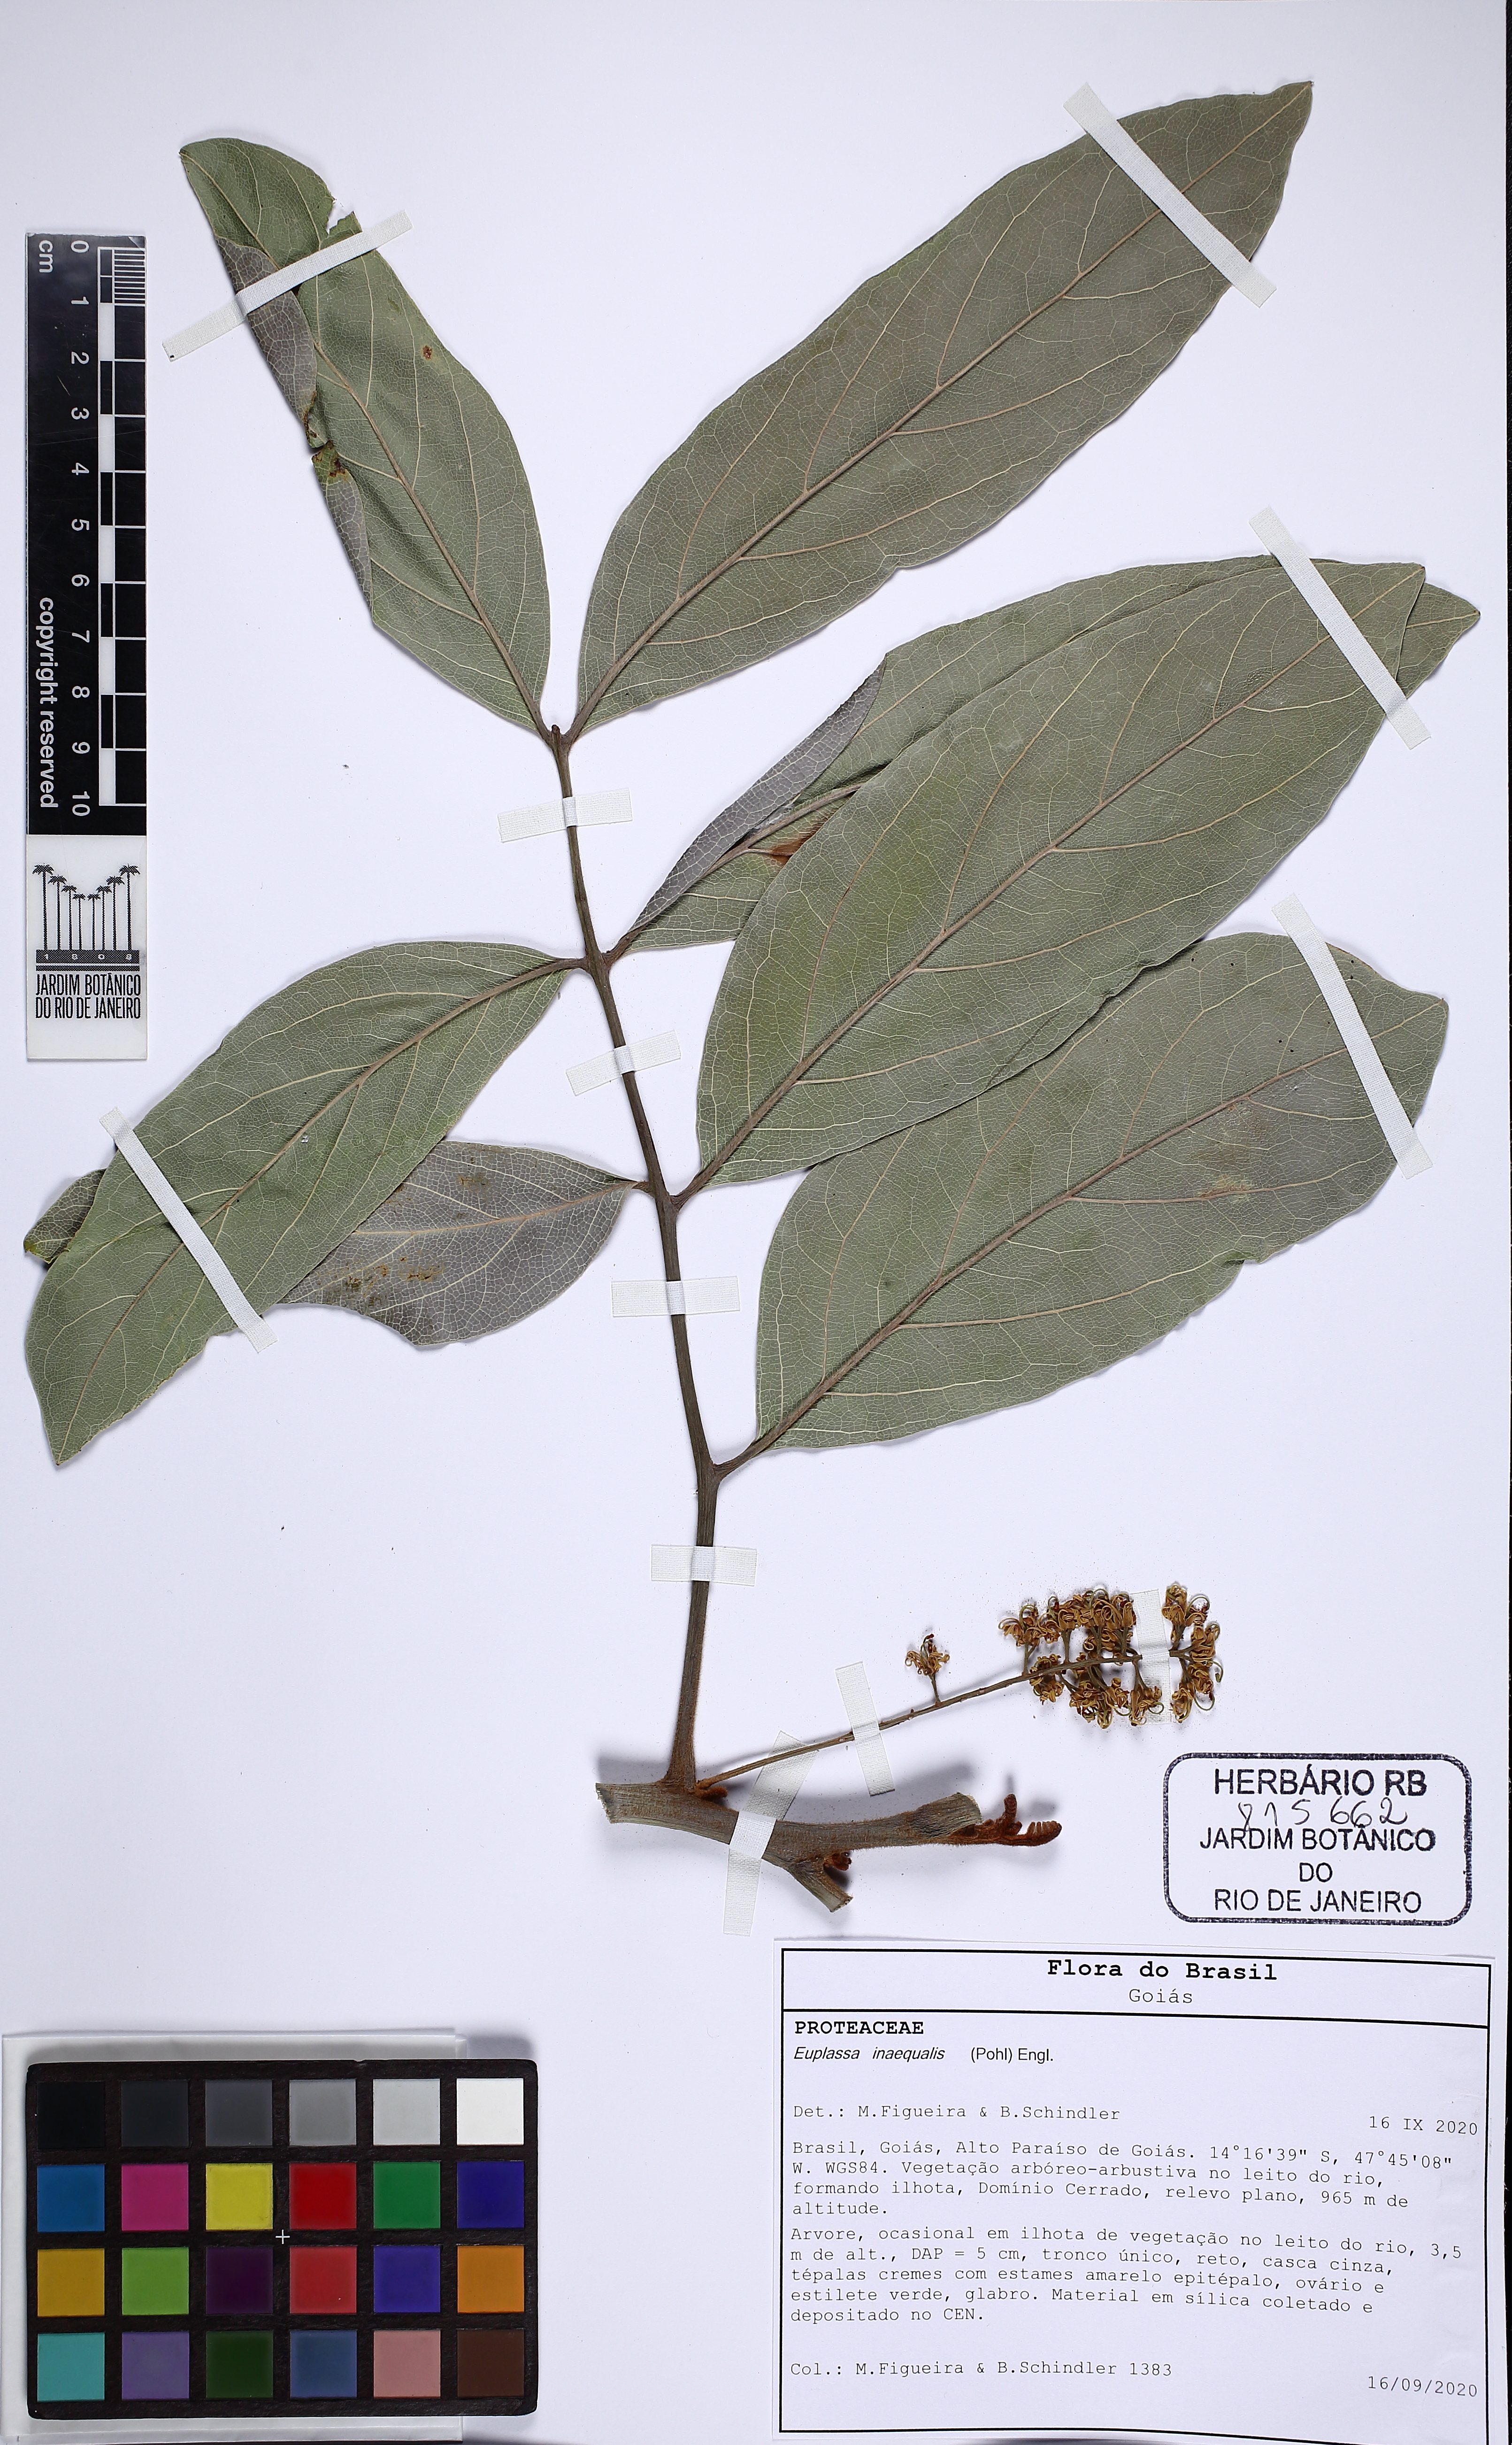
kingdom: Plantae
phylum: Tracheophyta
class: Magnoliopsida
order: Proteales
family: Proteaceae
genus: Euplassa
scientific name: Euplassa inaequalis
